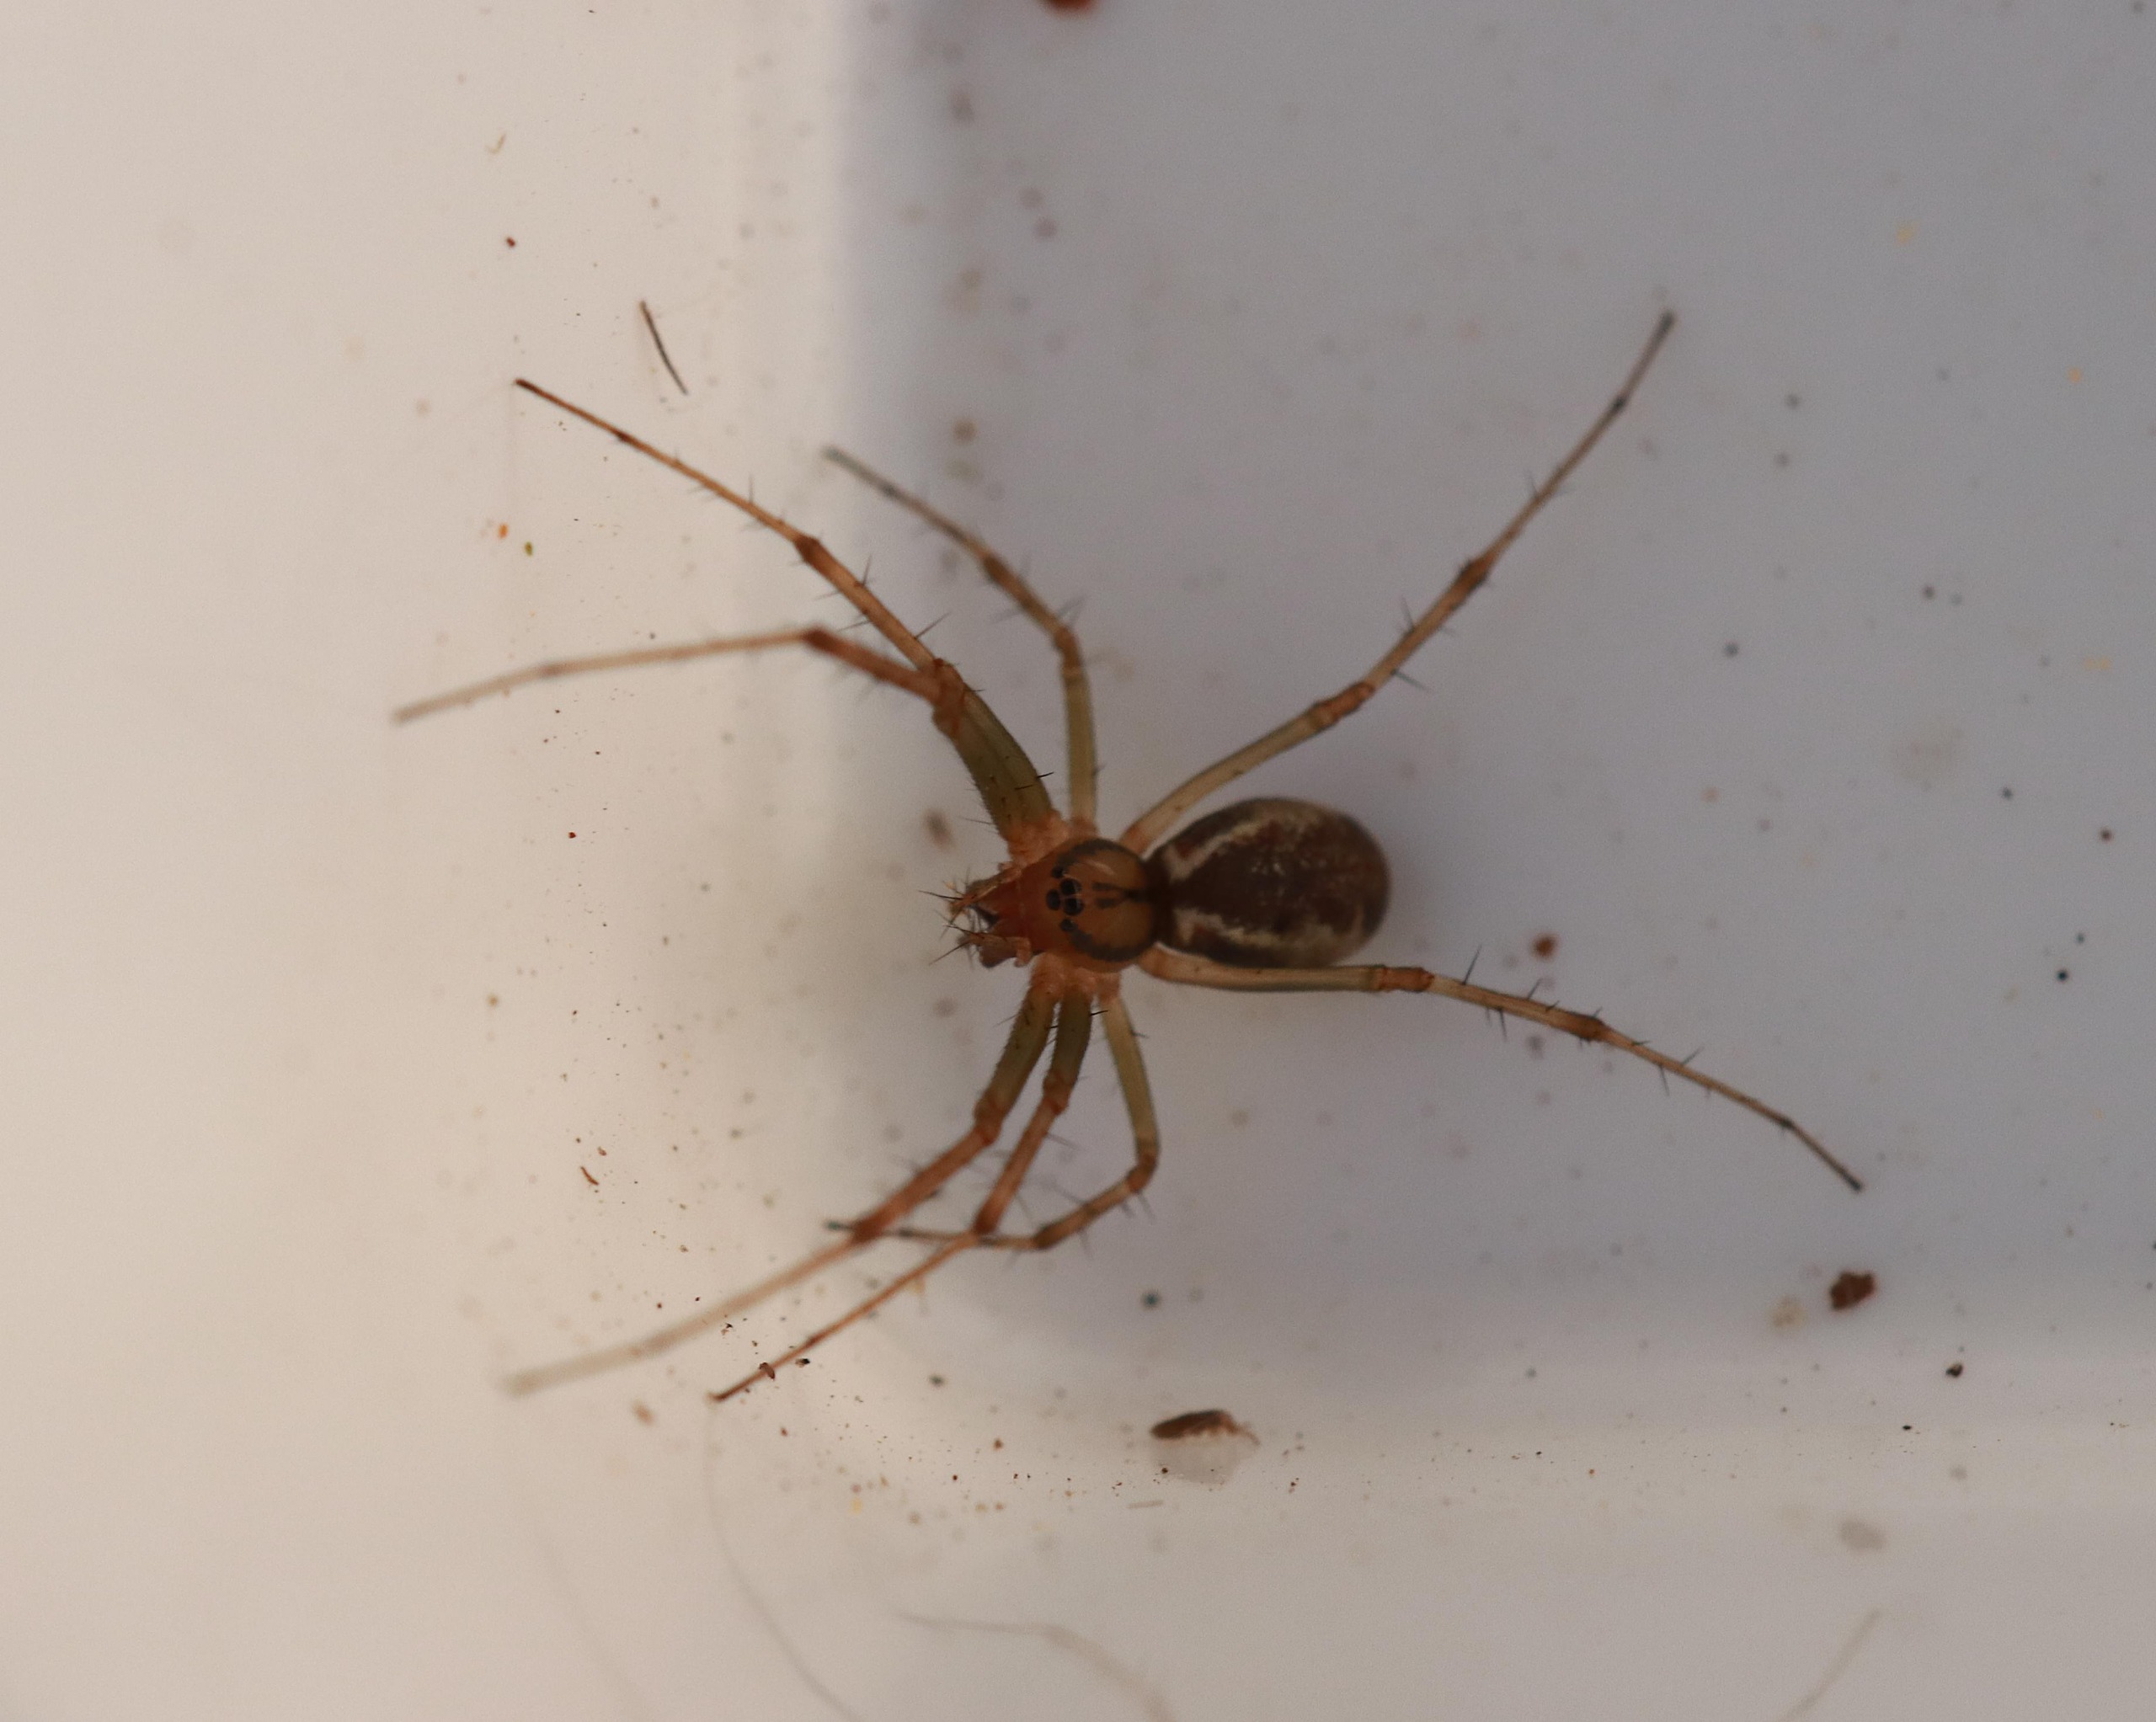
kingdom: Animalia
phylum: Arthropoda
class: Arachnida
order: Araneae
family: Linyphiidae
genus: Linyphia
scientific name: Linyphia triangularis
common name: Almindelig baldakinspinder
